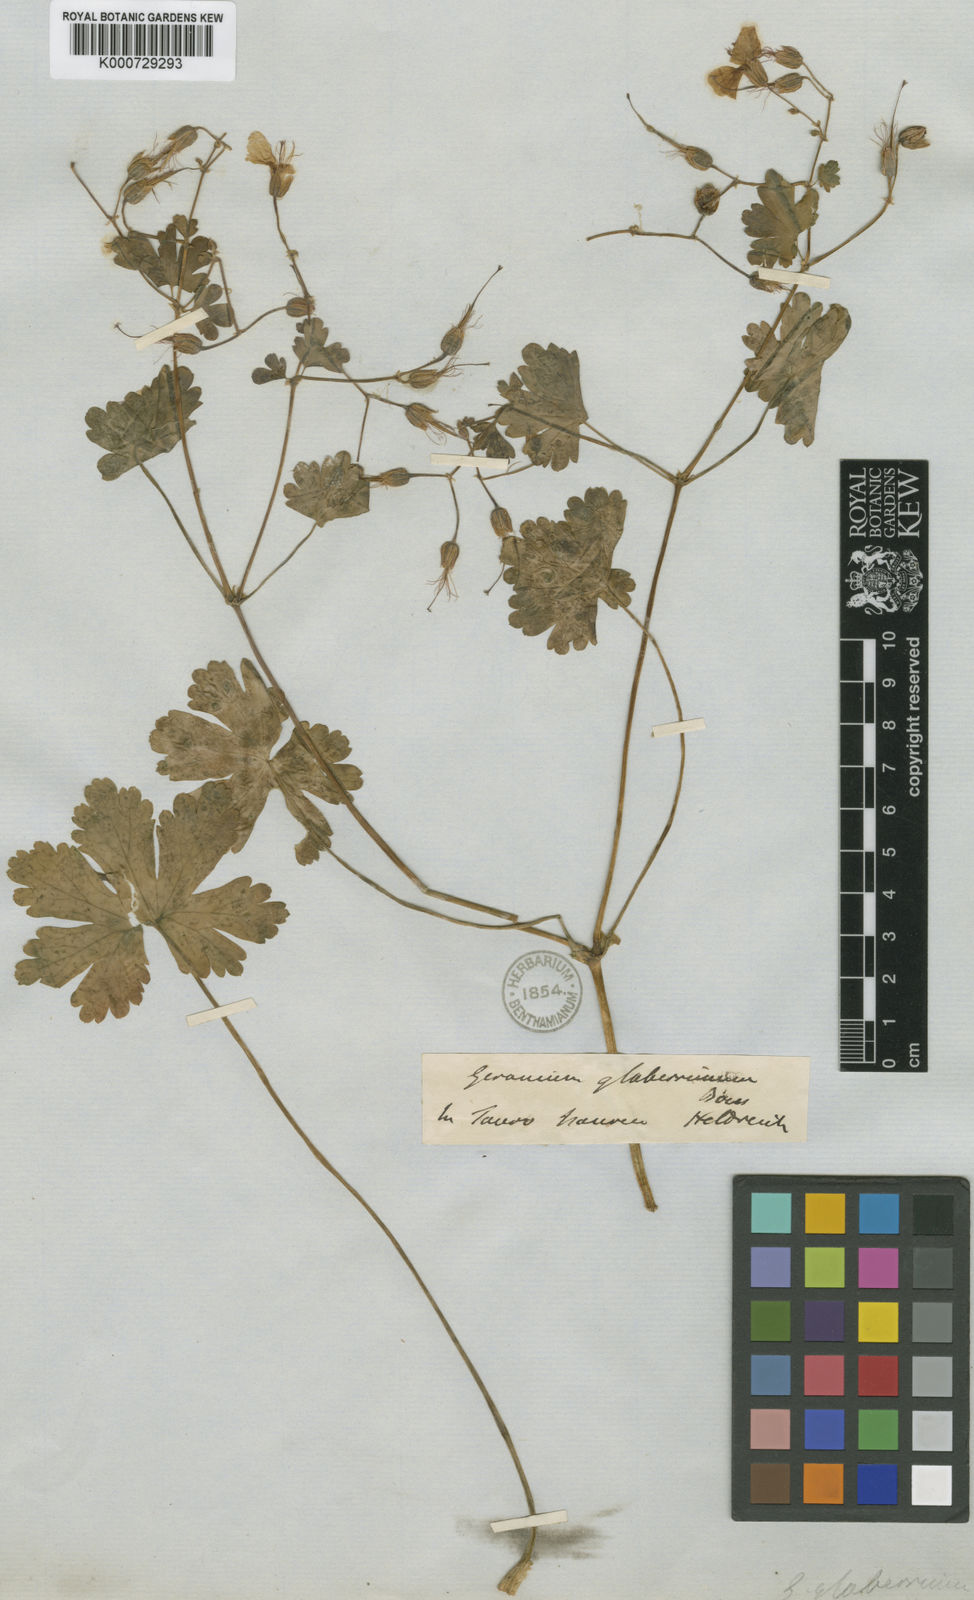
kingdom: Plantae
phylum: Tracheophyta
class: Magnoliopsida
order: Geraniales
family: Geraniaceae
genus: Geranium
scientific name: Geranium glaberrimum
